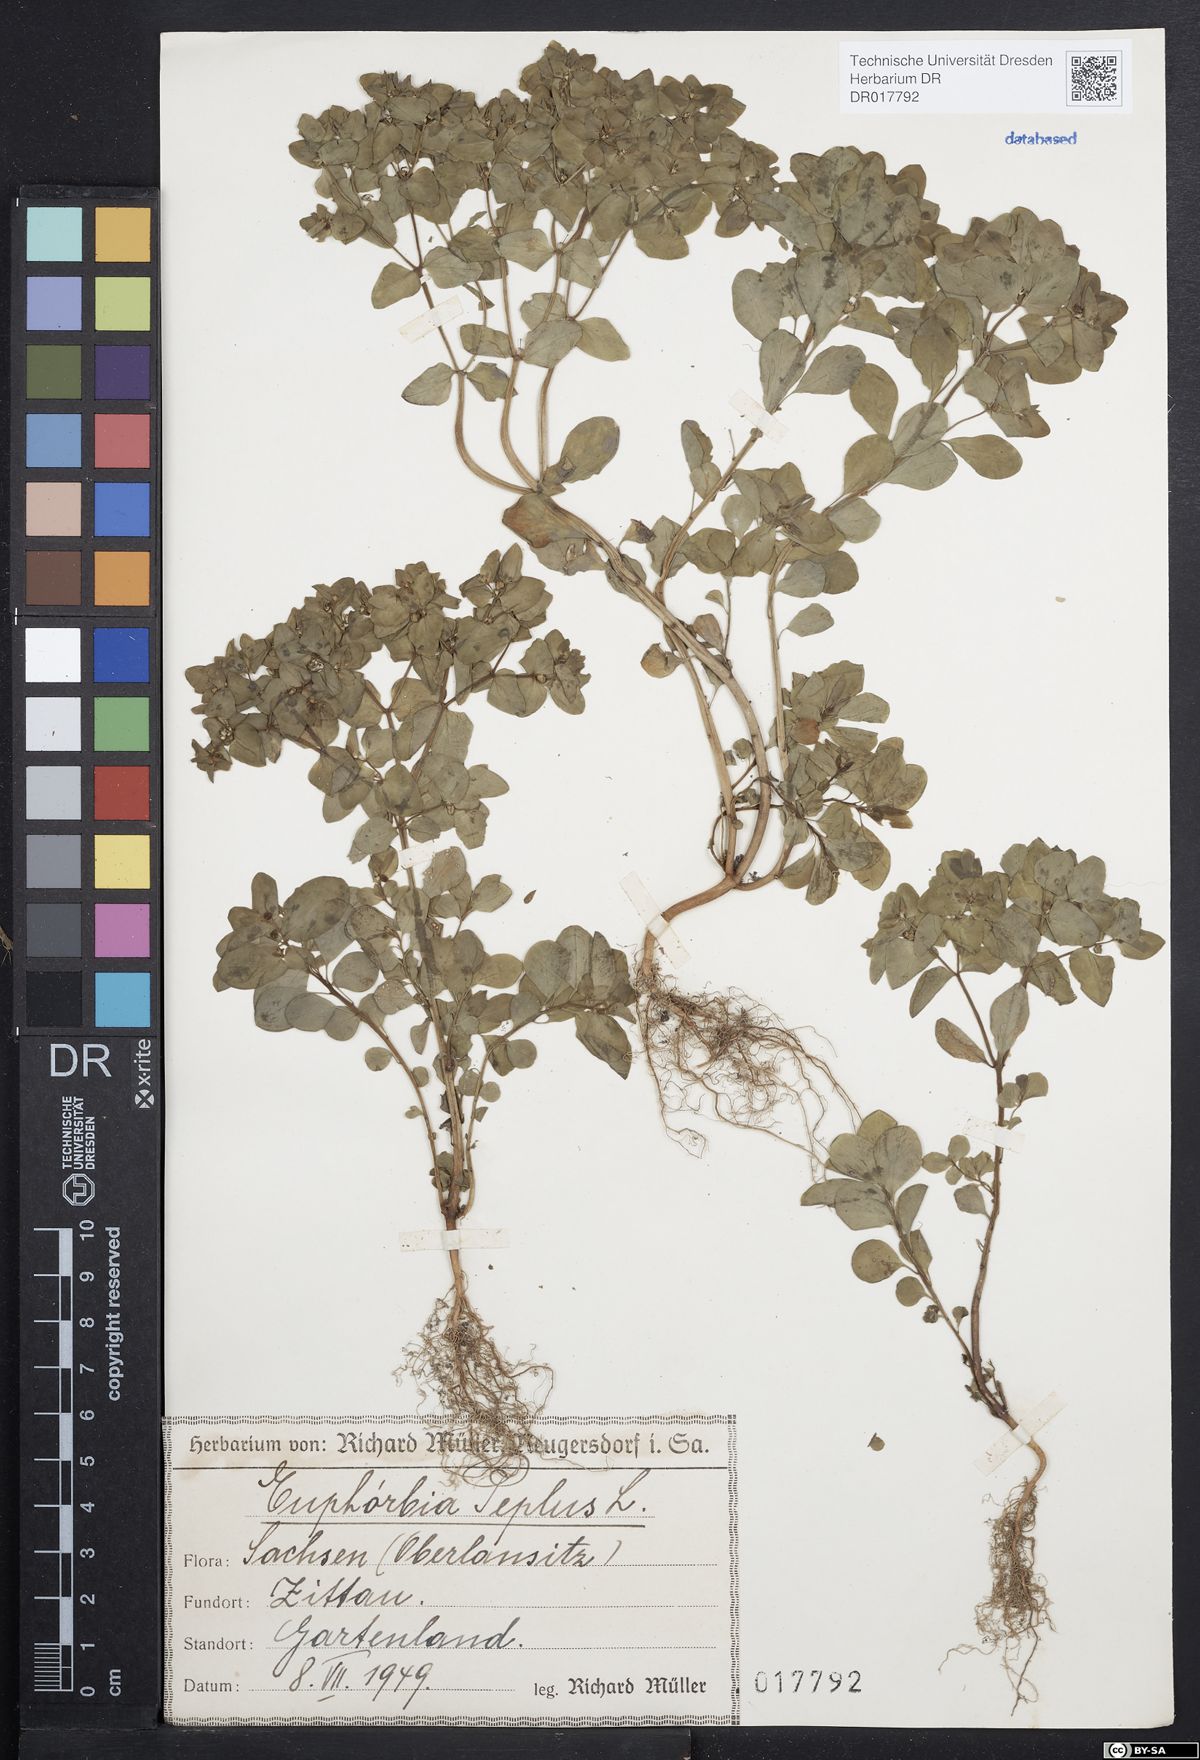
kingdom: Plantae
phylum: Tracheophyta
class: Magnoliopsida
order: Malpighiales
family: Euphorbiaceae
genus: Euphorbia
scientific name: Euphorbia peplus
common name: Petty spurge
